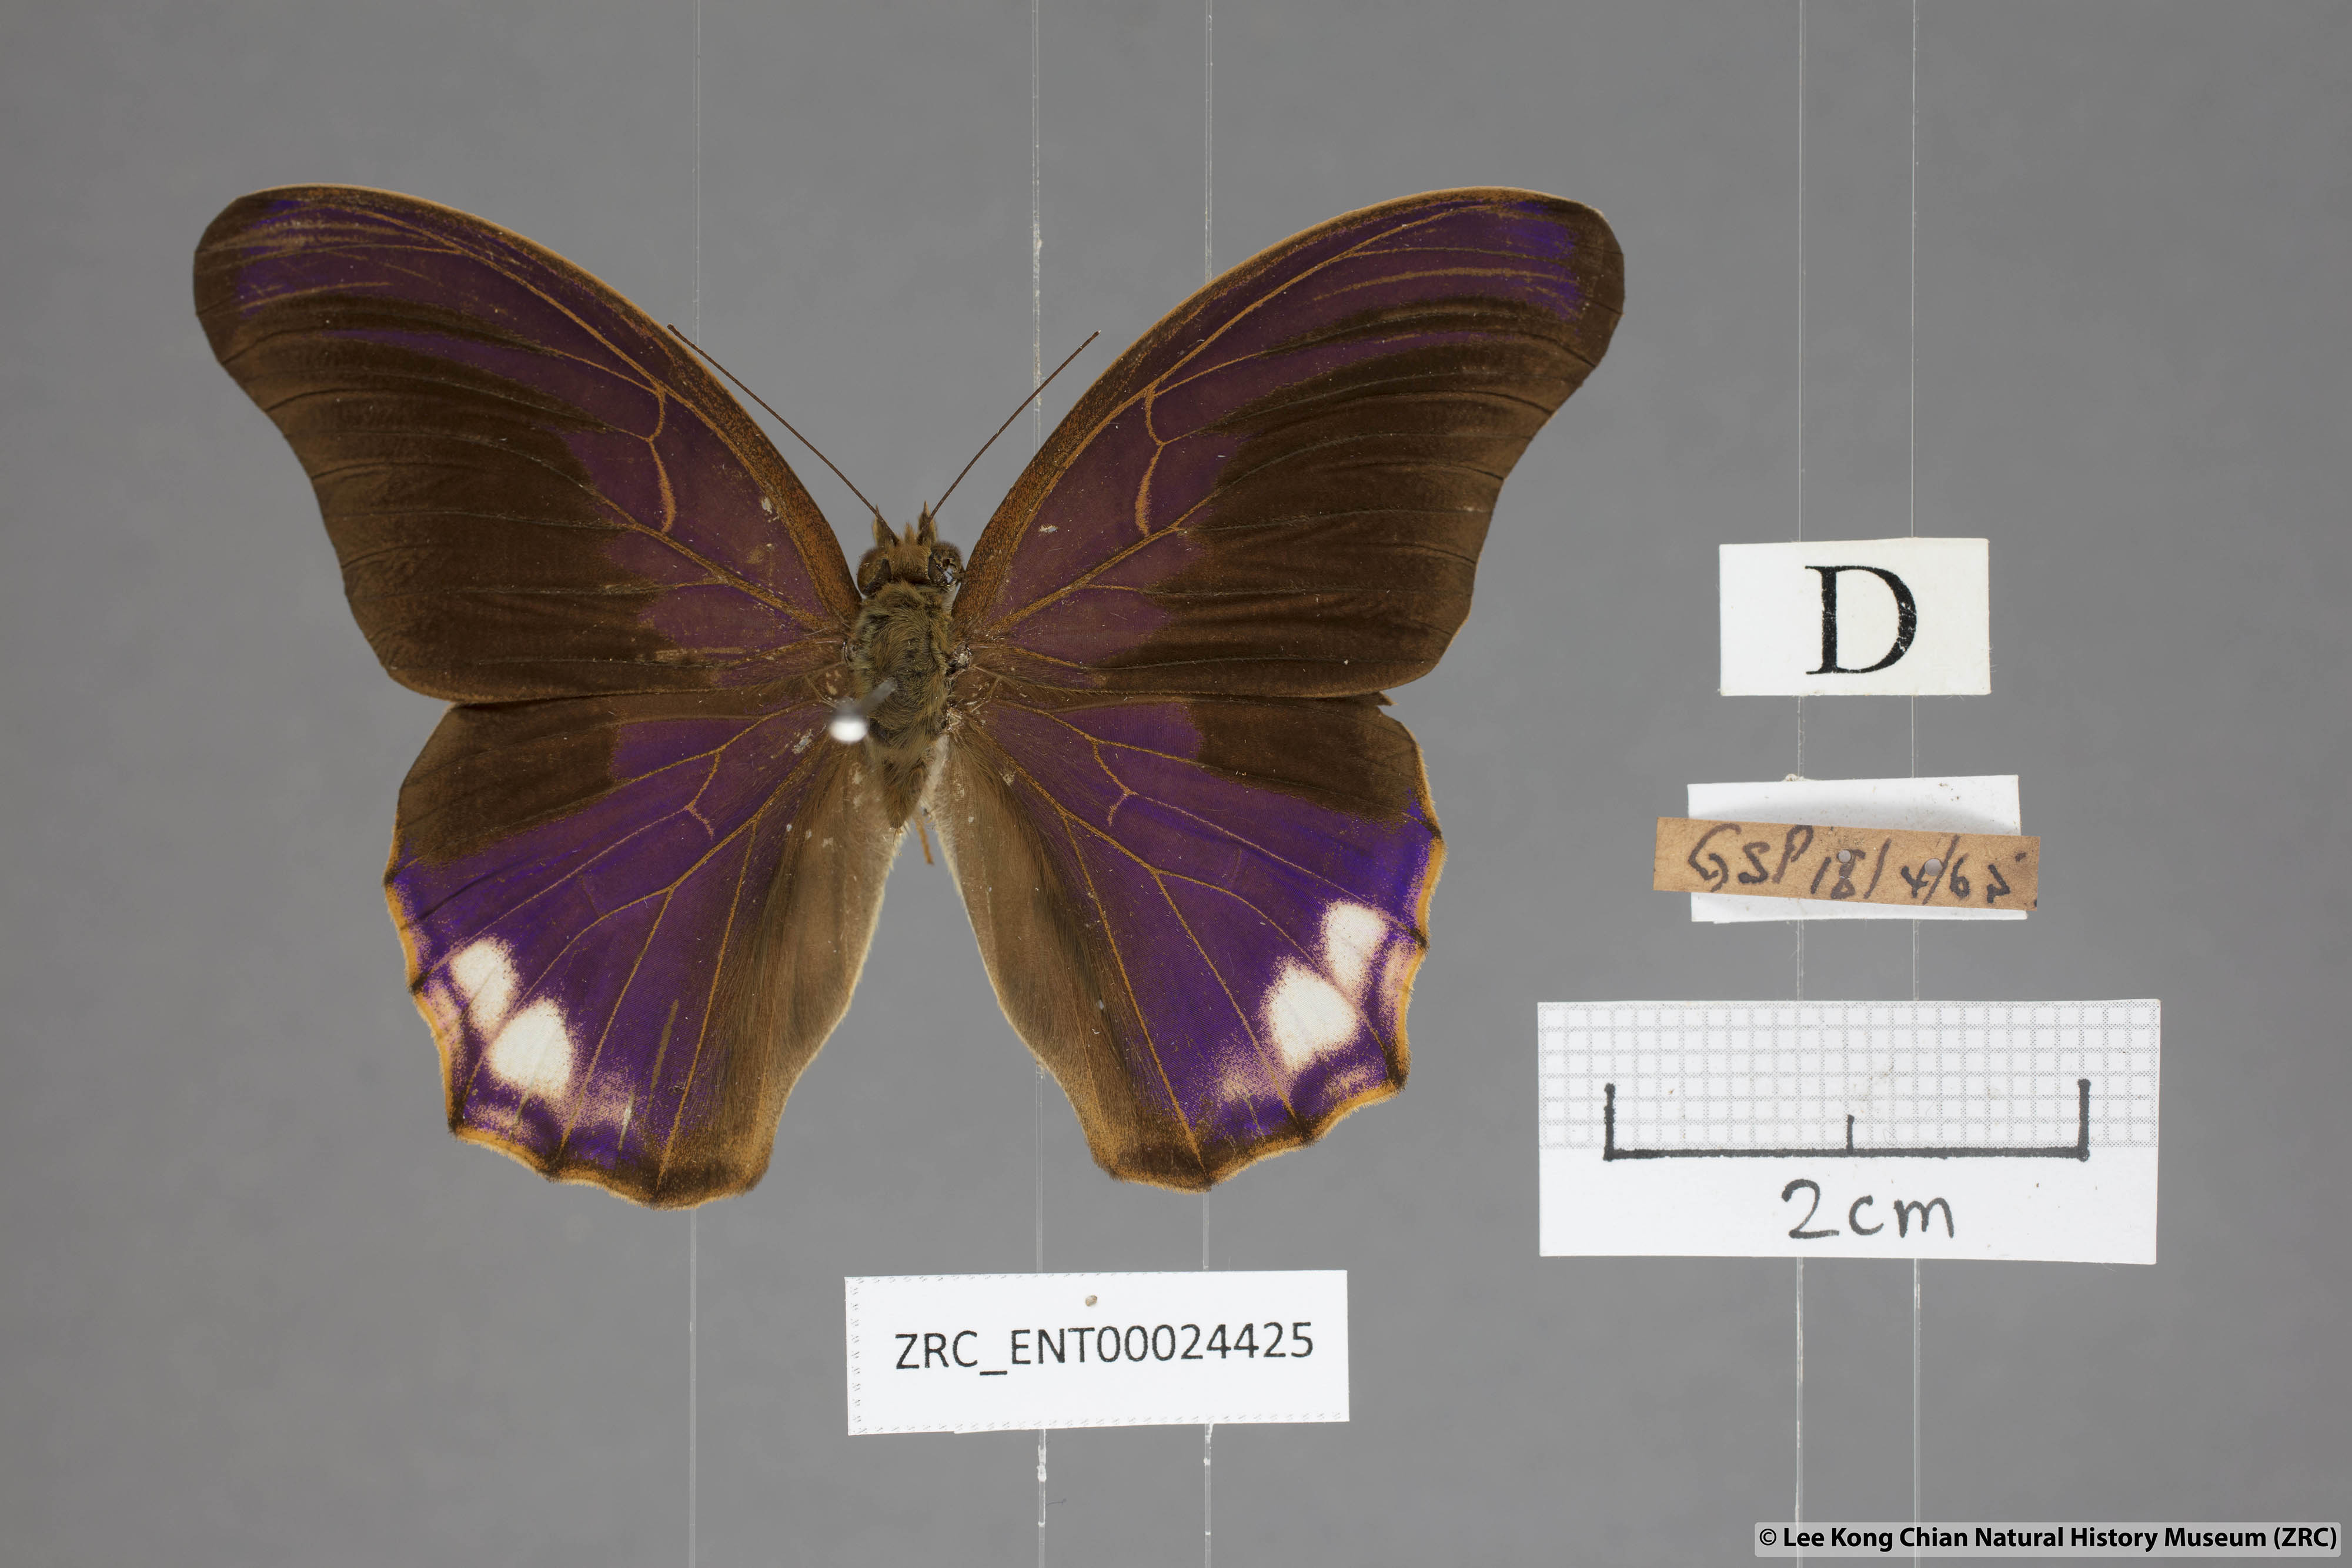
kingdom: Animalia
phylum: Arthropoda
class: Insecta
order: Lepidoptera
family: Nymphalidae
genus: Terinos
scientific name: Terinos atlita
